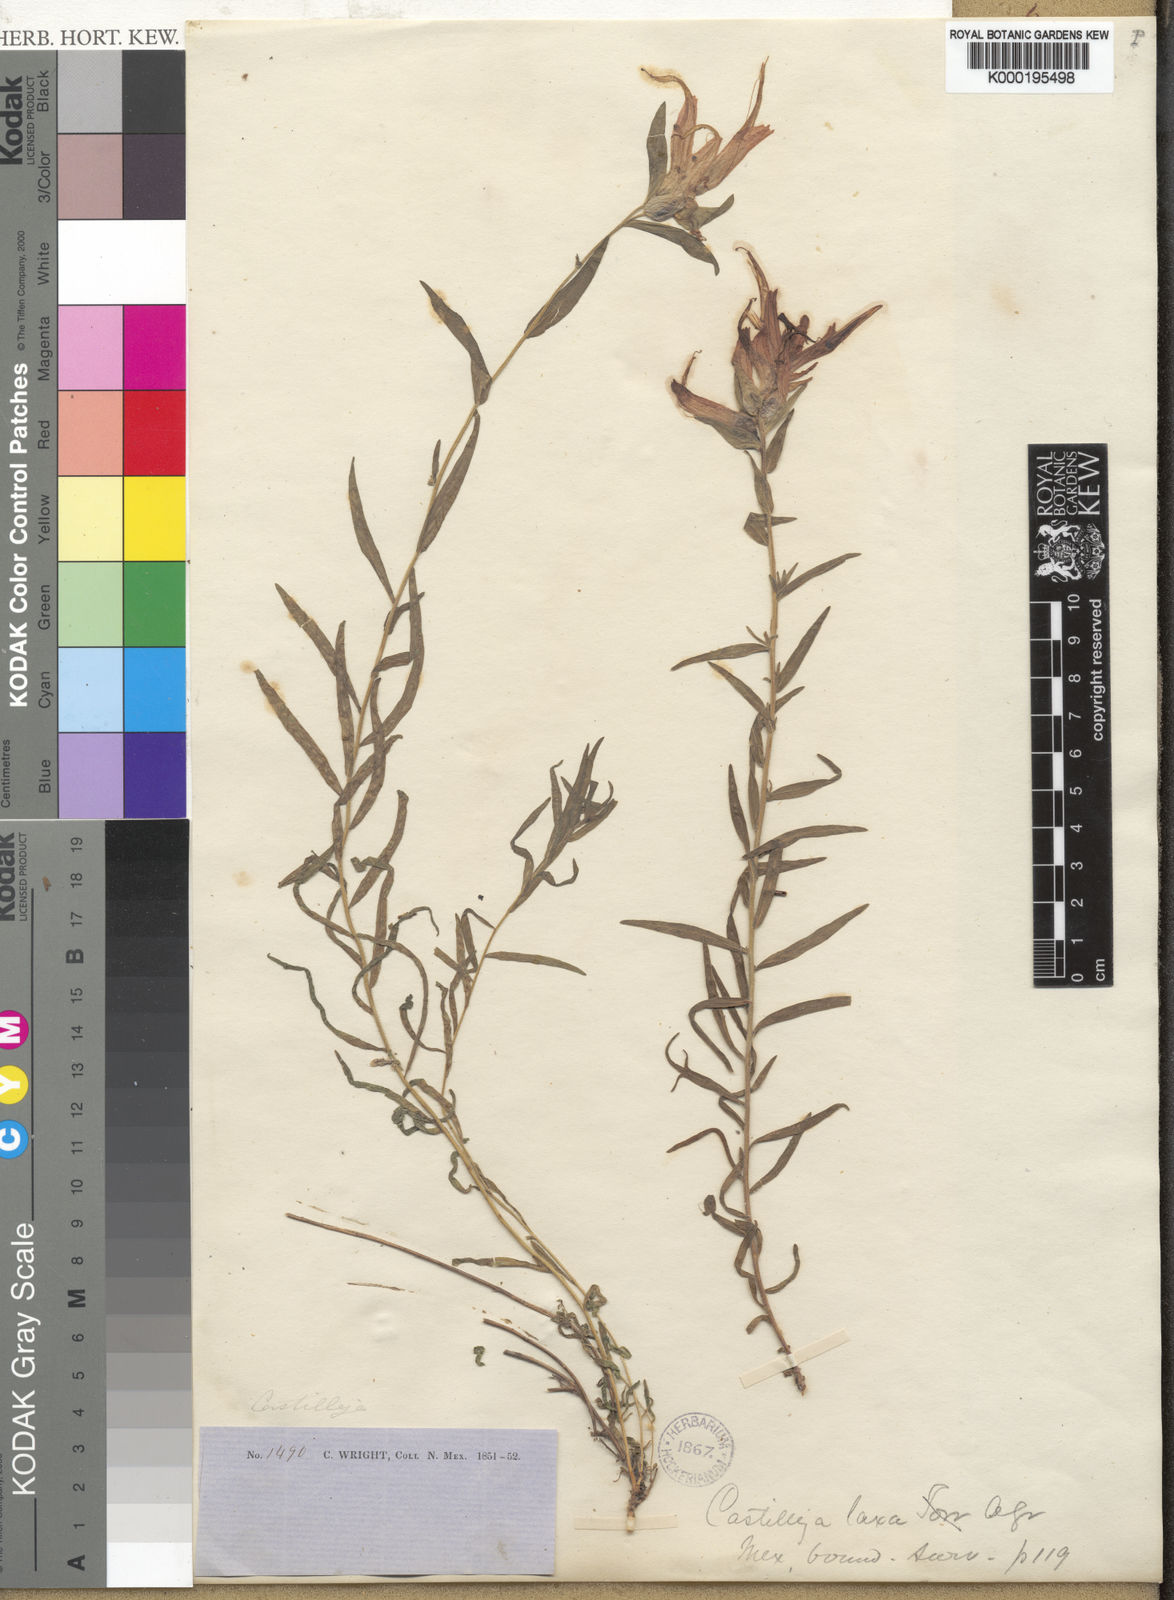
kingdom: Plantae
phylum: Tracheophyta
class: Magnoliopsida
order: Lamiales
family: Orobanchaceae
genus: Castilleja
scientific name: Castilleja tenuiflora
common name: Santa catalina indian paintbrush
